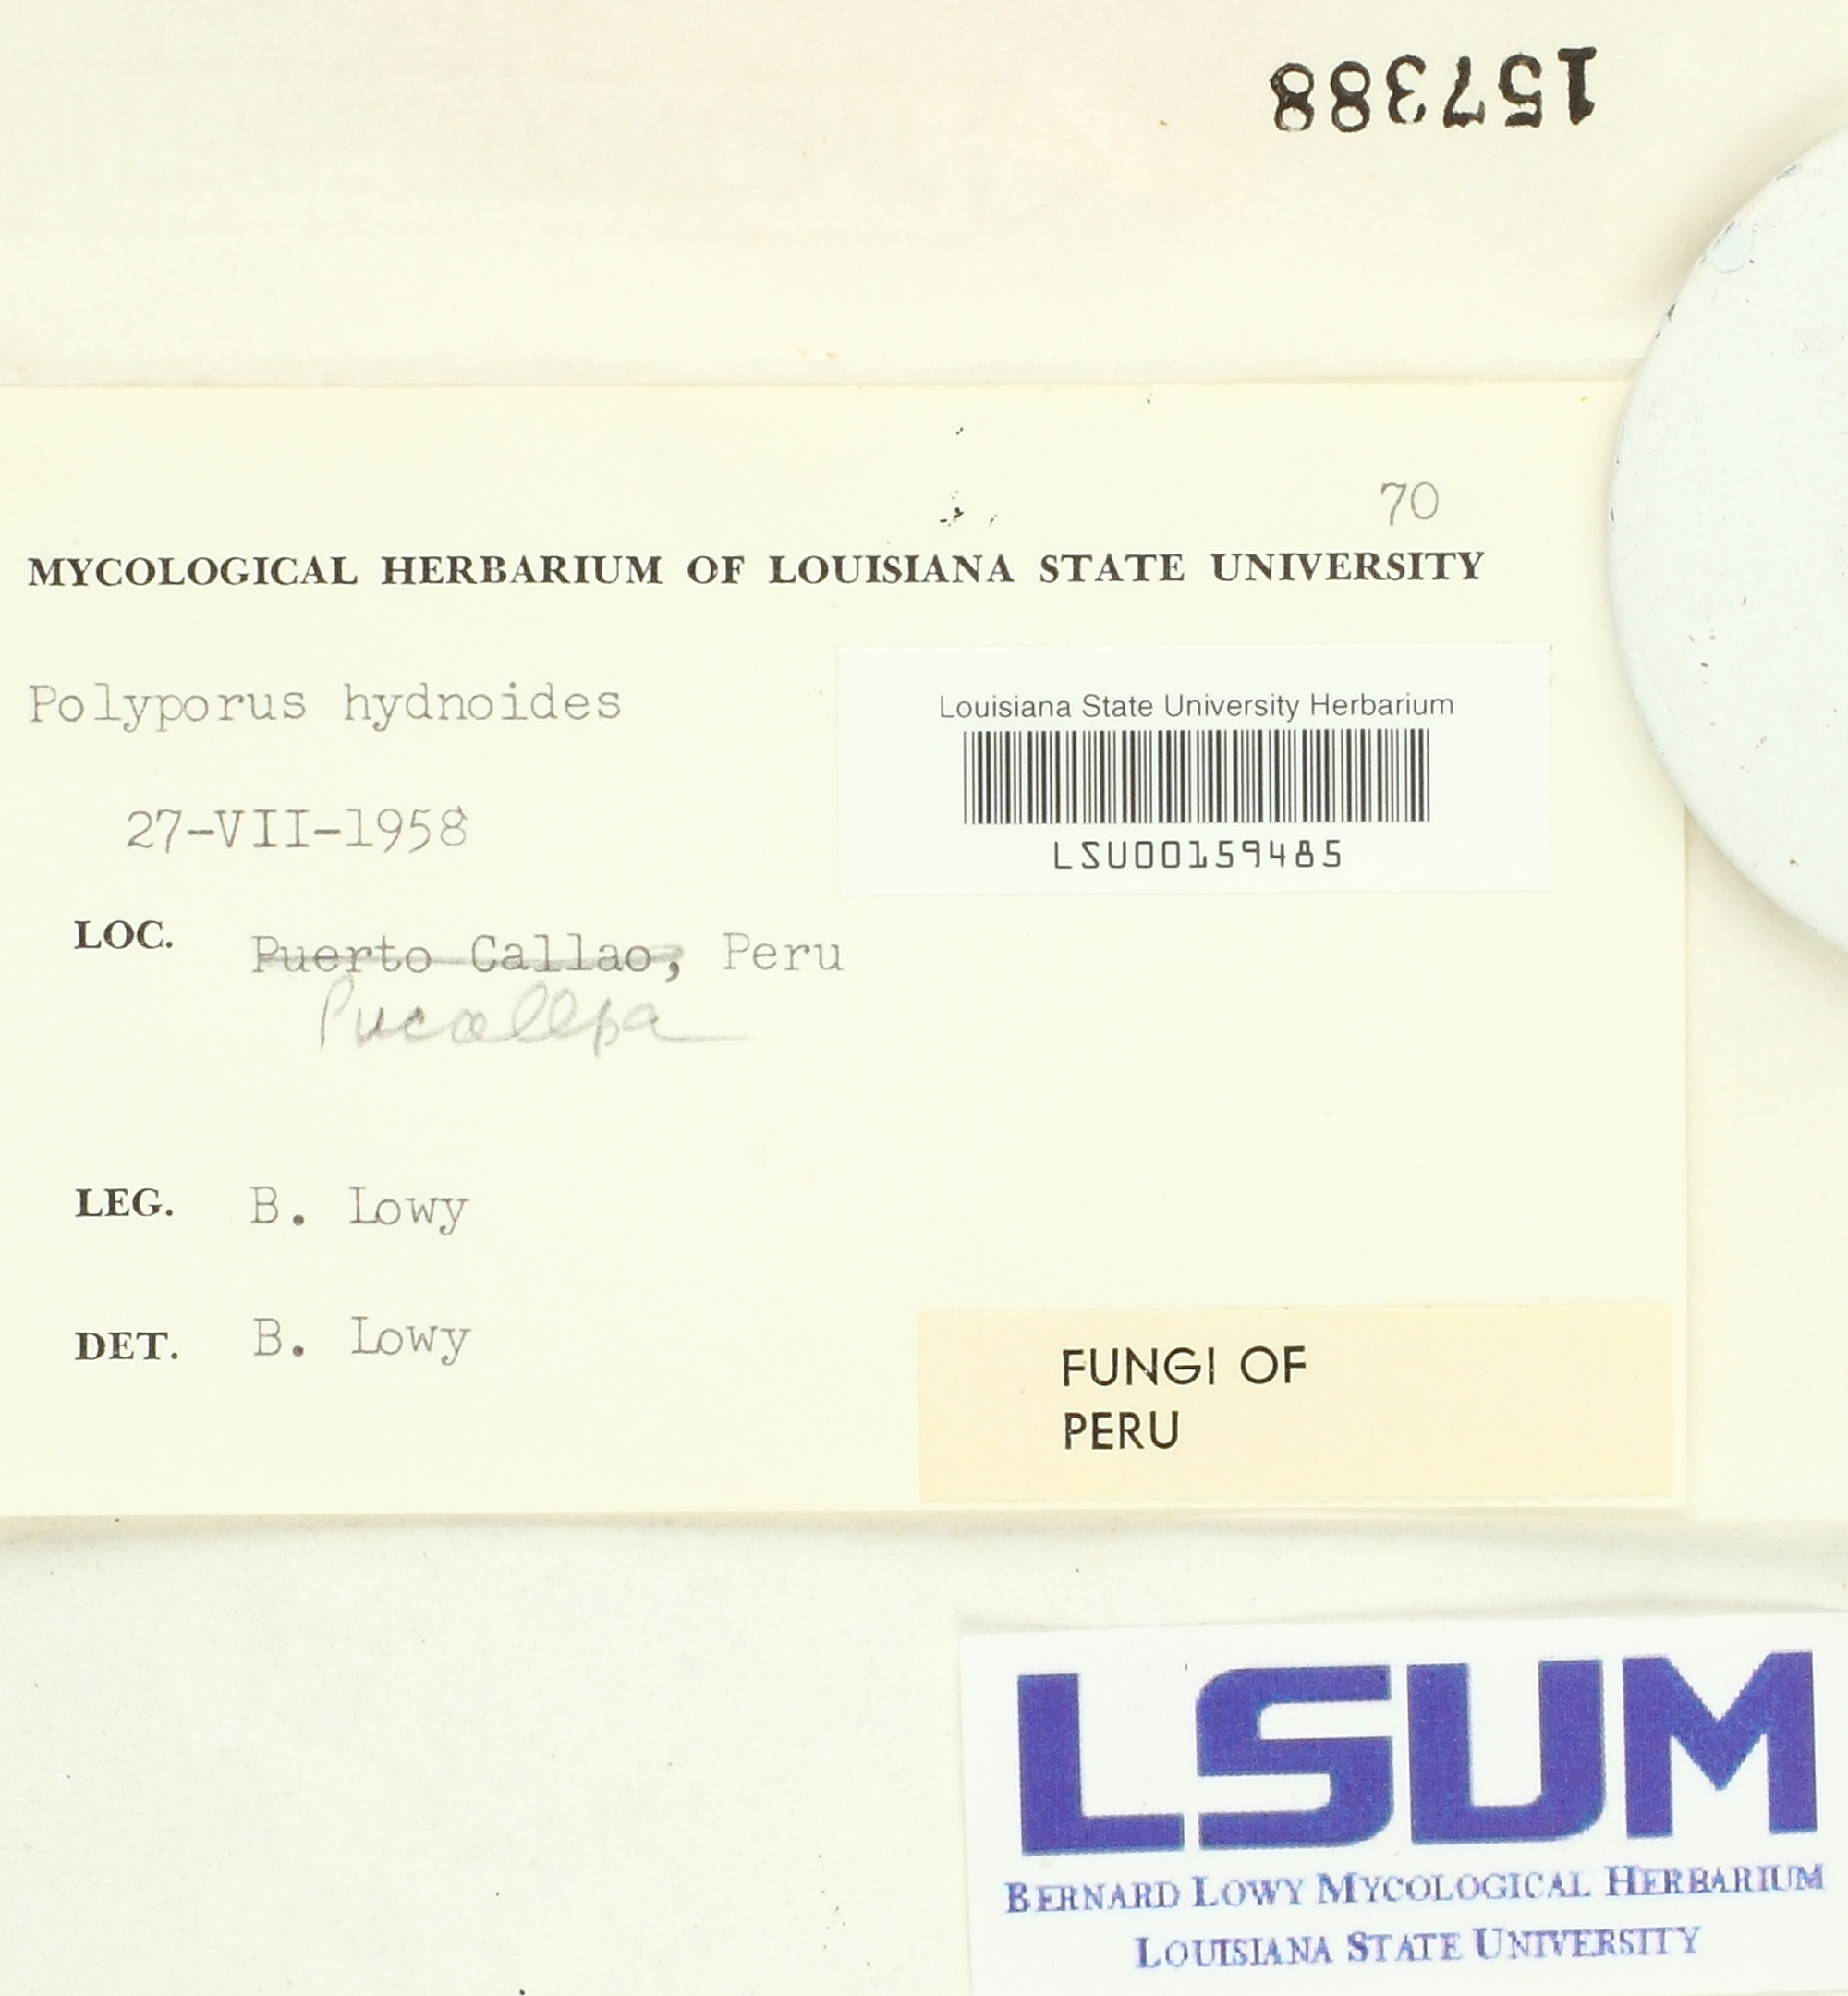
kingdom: Fungi
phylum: Basidiomycota
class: Agaricomycetes
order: Polyporales
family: Cerrenaceae
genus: Cerrena
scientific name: Cerrena hydnoides
